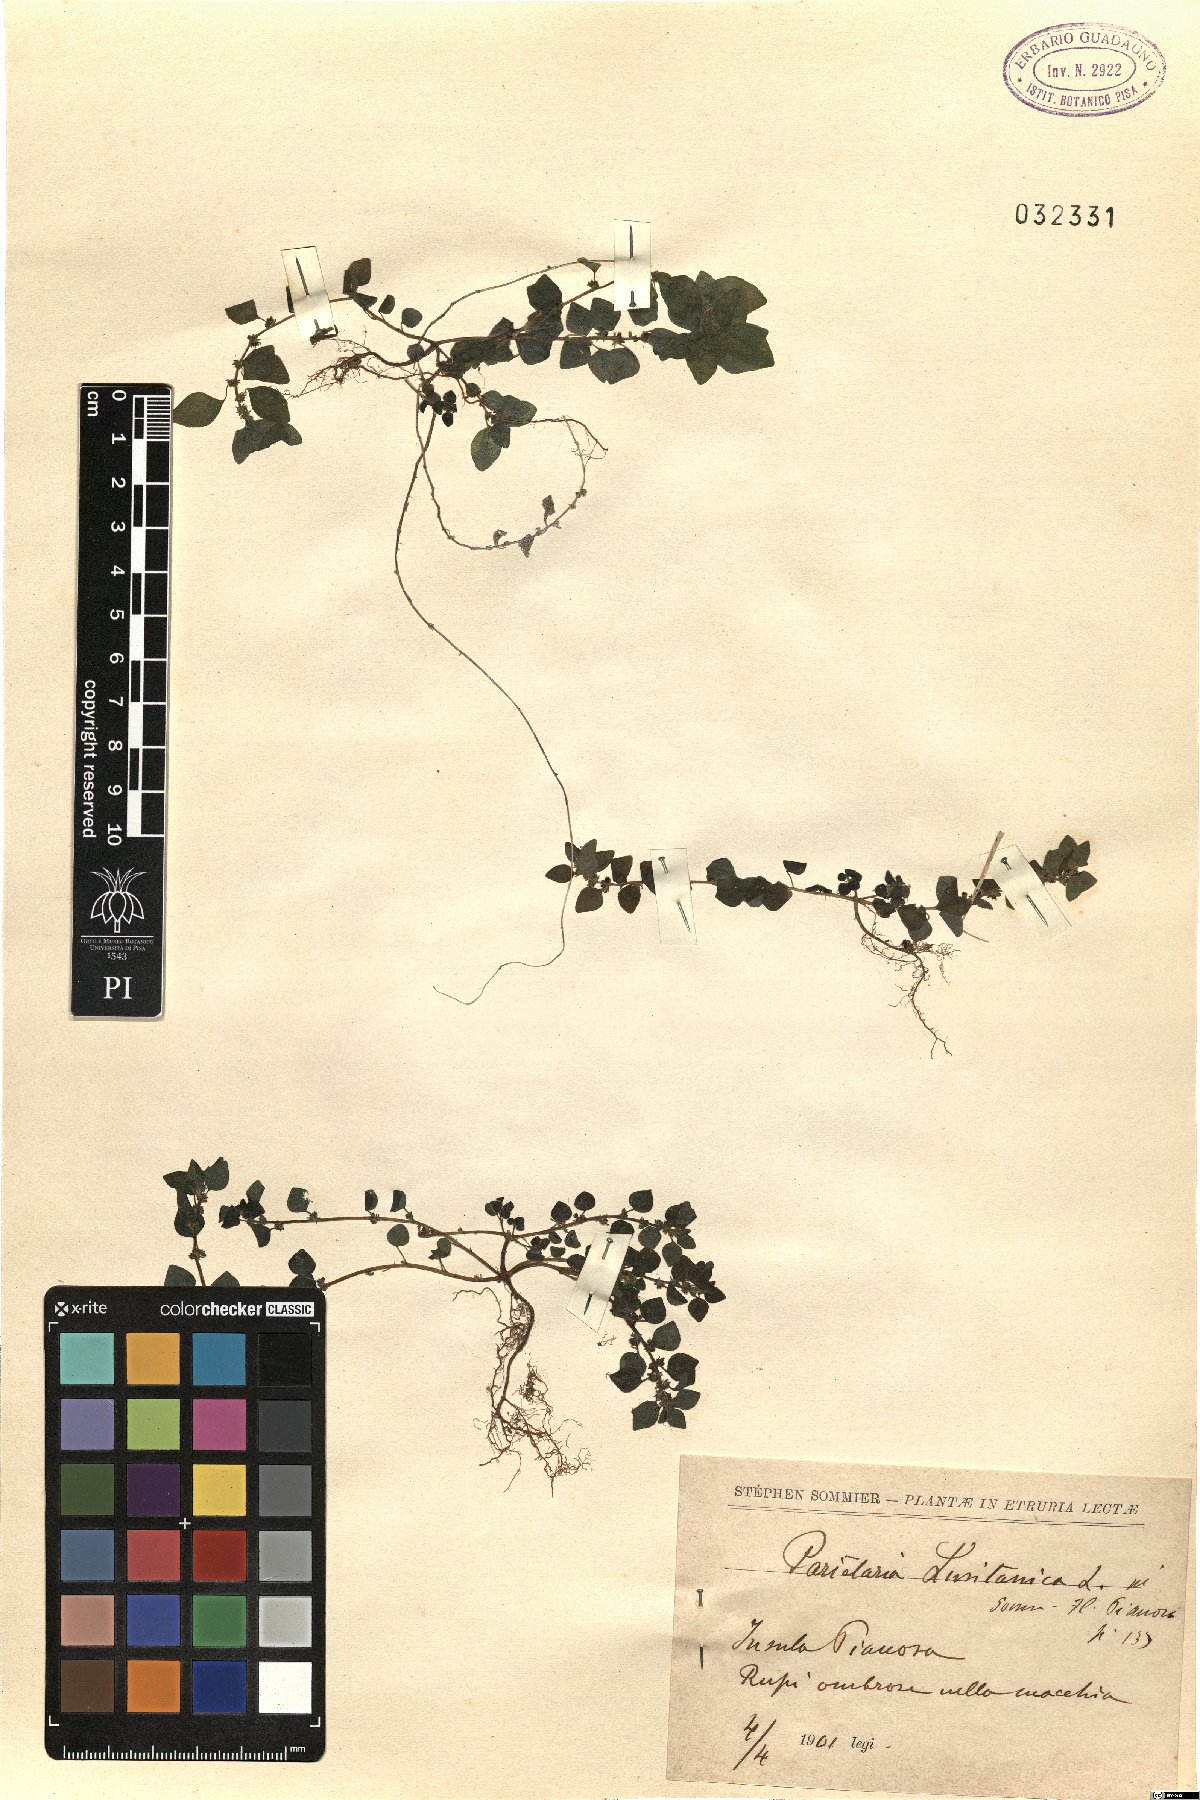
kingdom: Plantae
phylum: Tracheophyta
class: Magnoliopsida
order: Rosales
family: Urticaceae
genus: Parietaria
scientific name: Parietaria lusitanica
